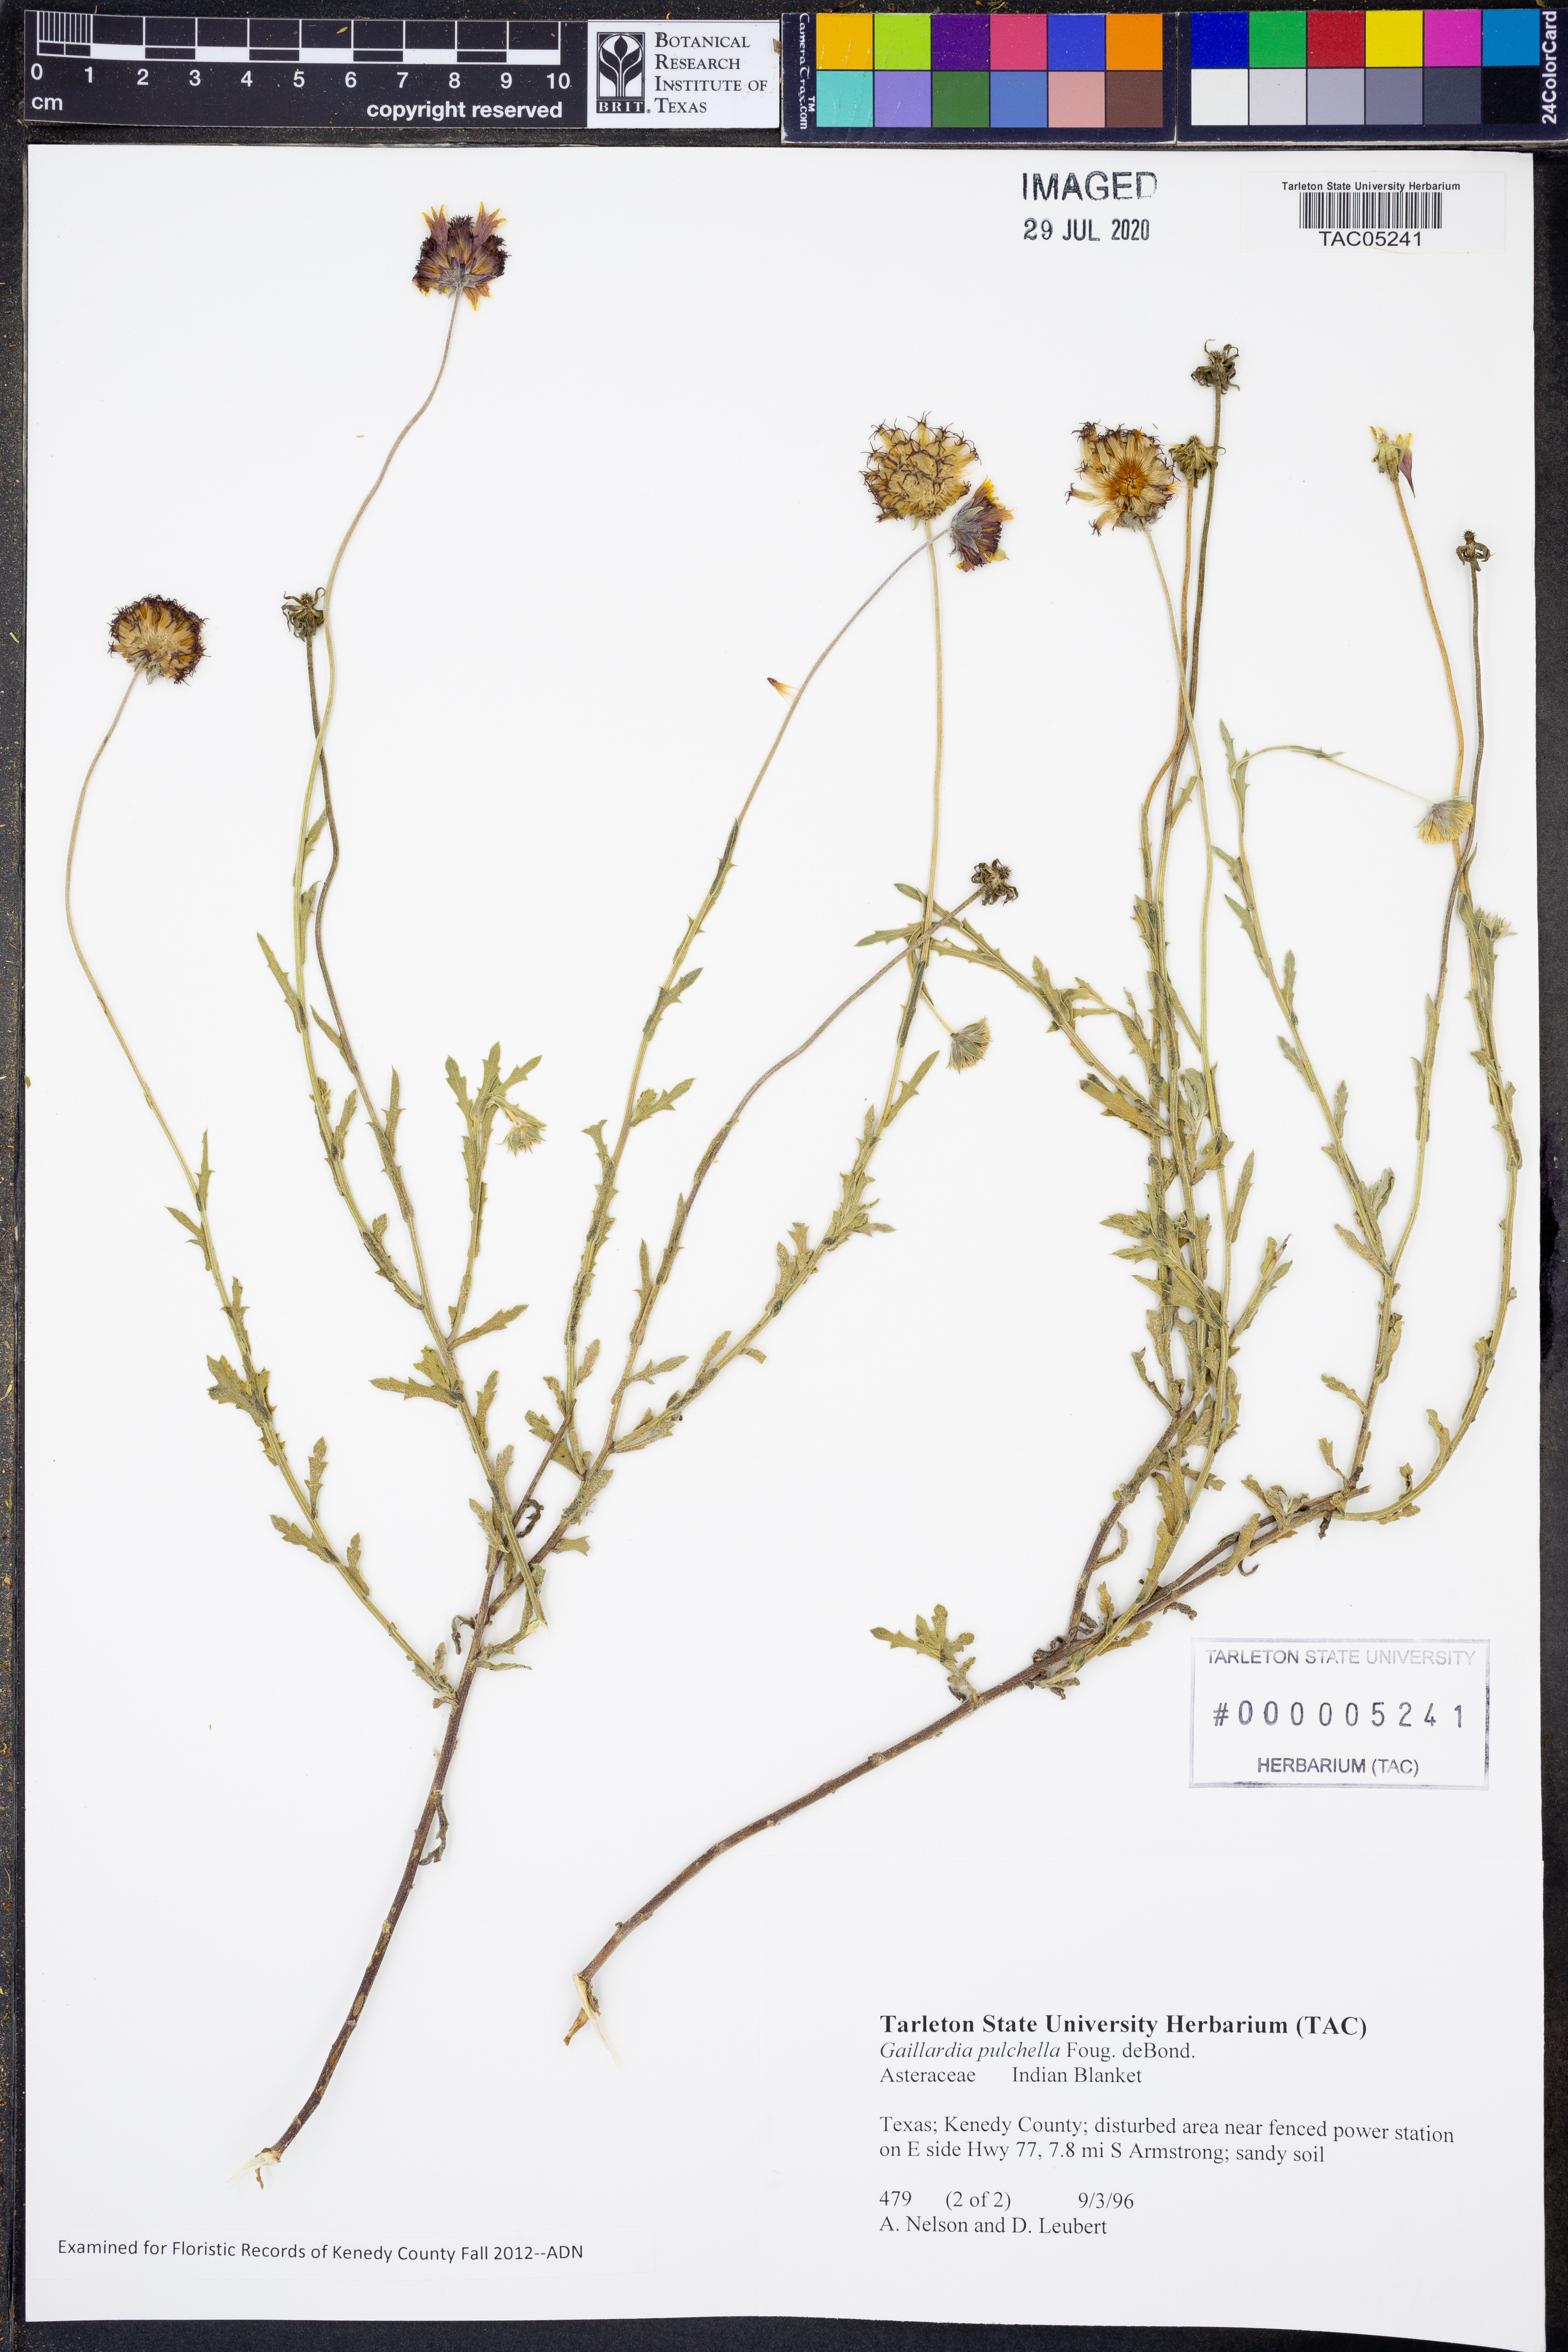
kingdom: Plantae
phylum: Tracheophyta
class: Magnoliopsida
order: Asterales
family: Asteraceae
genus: Gaillardia
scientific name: Gaillardia pulchella
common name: Firewheel
